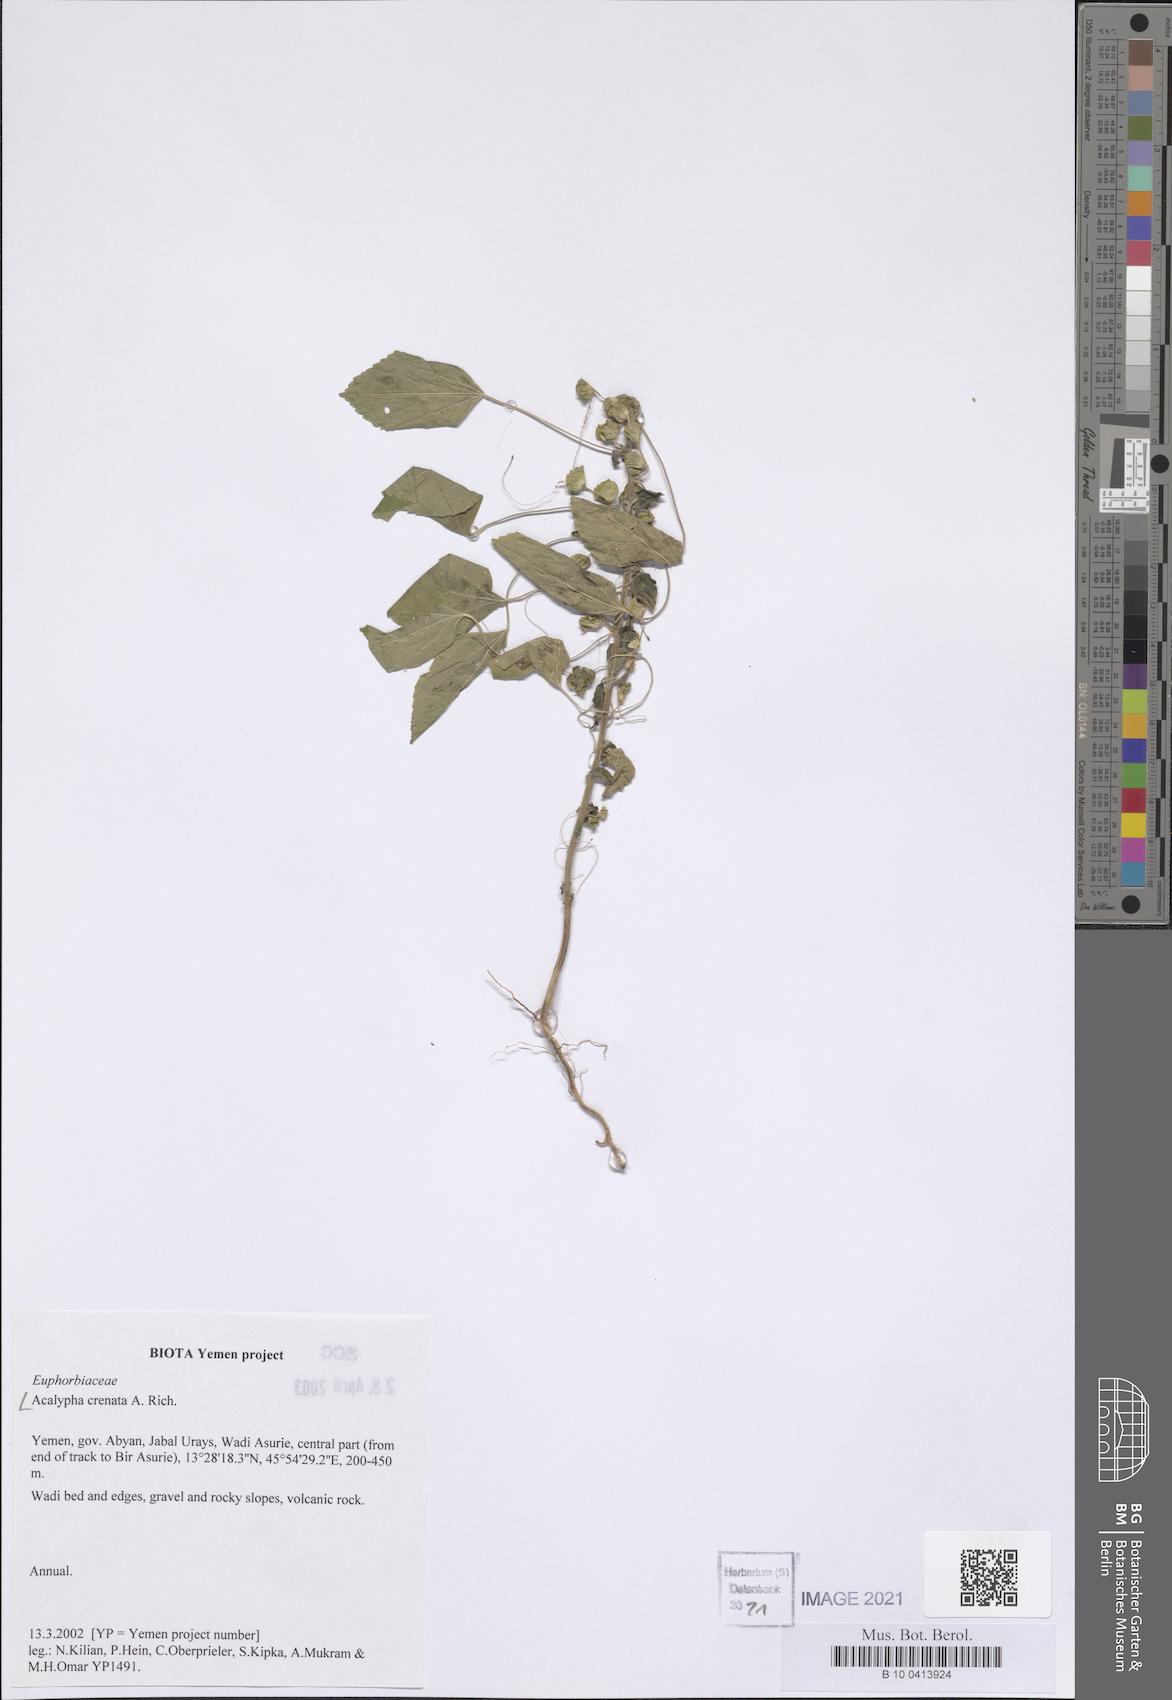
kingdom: Plantae
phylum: Tracheophyta
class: Magnoliopsida
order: Malpighiales
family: Euphorbiaceae
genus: Acalypha
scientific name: Acalypha crenata
